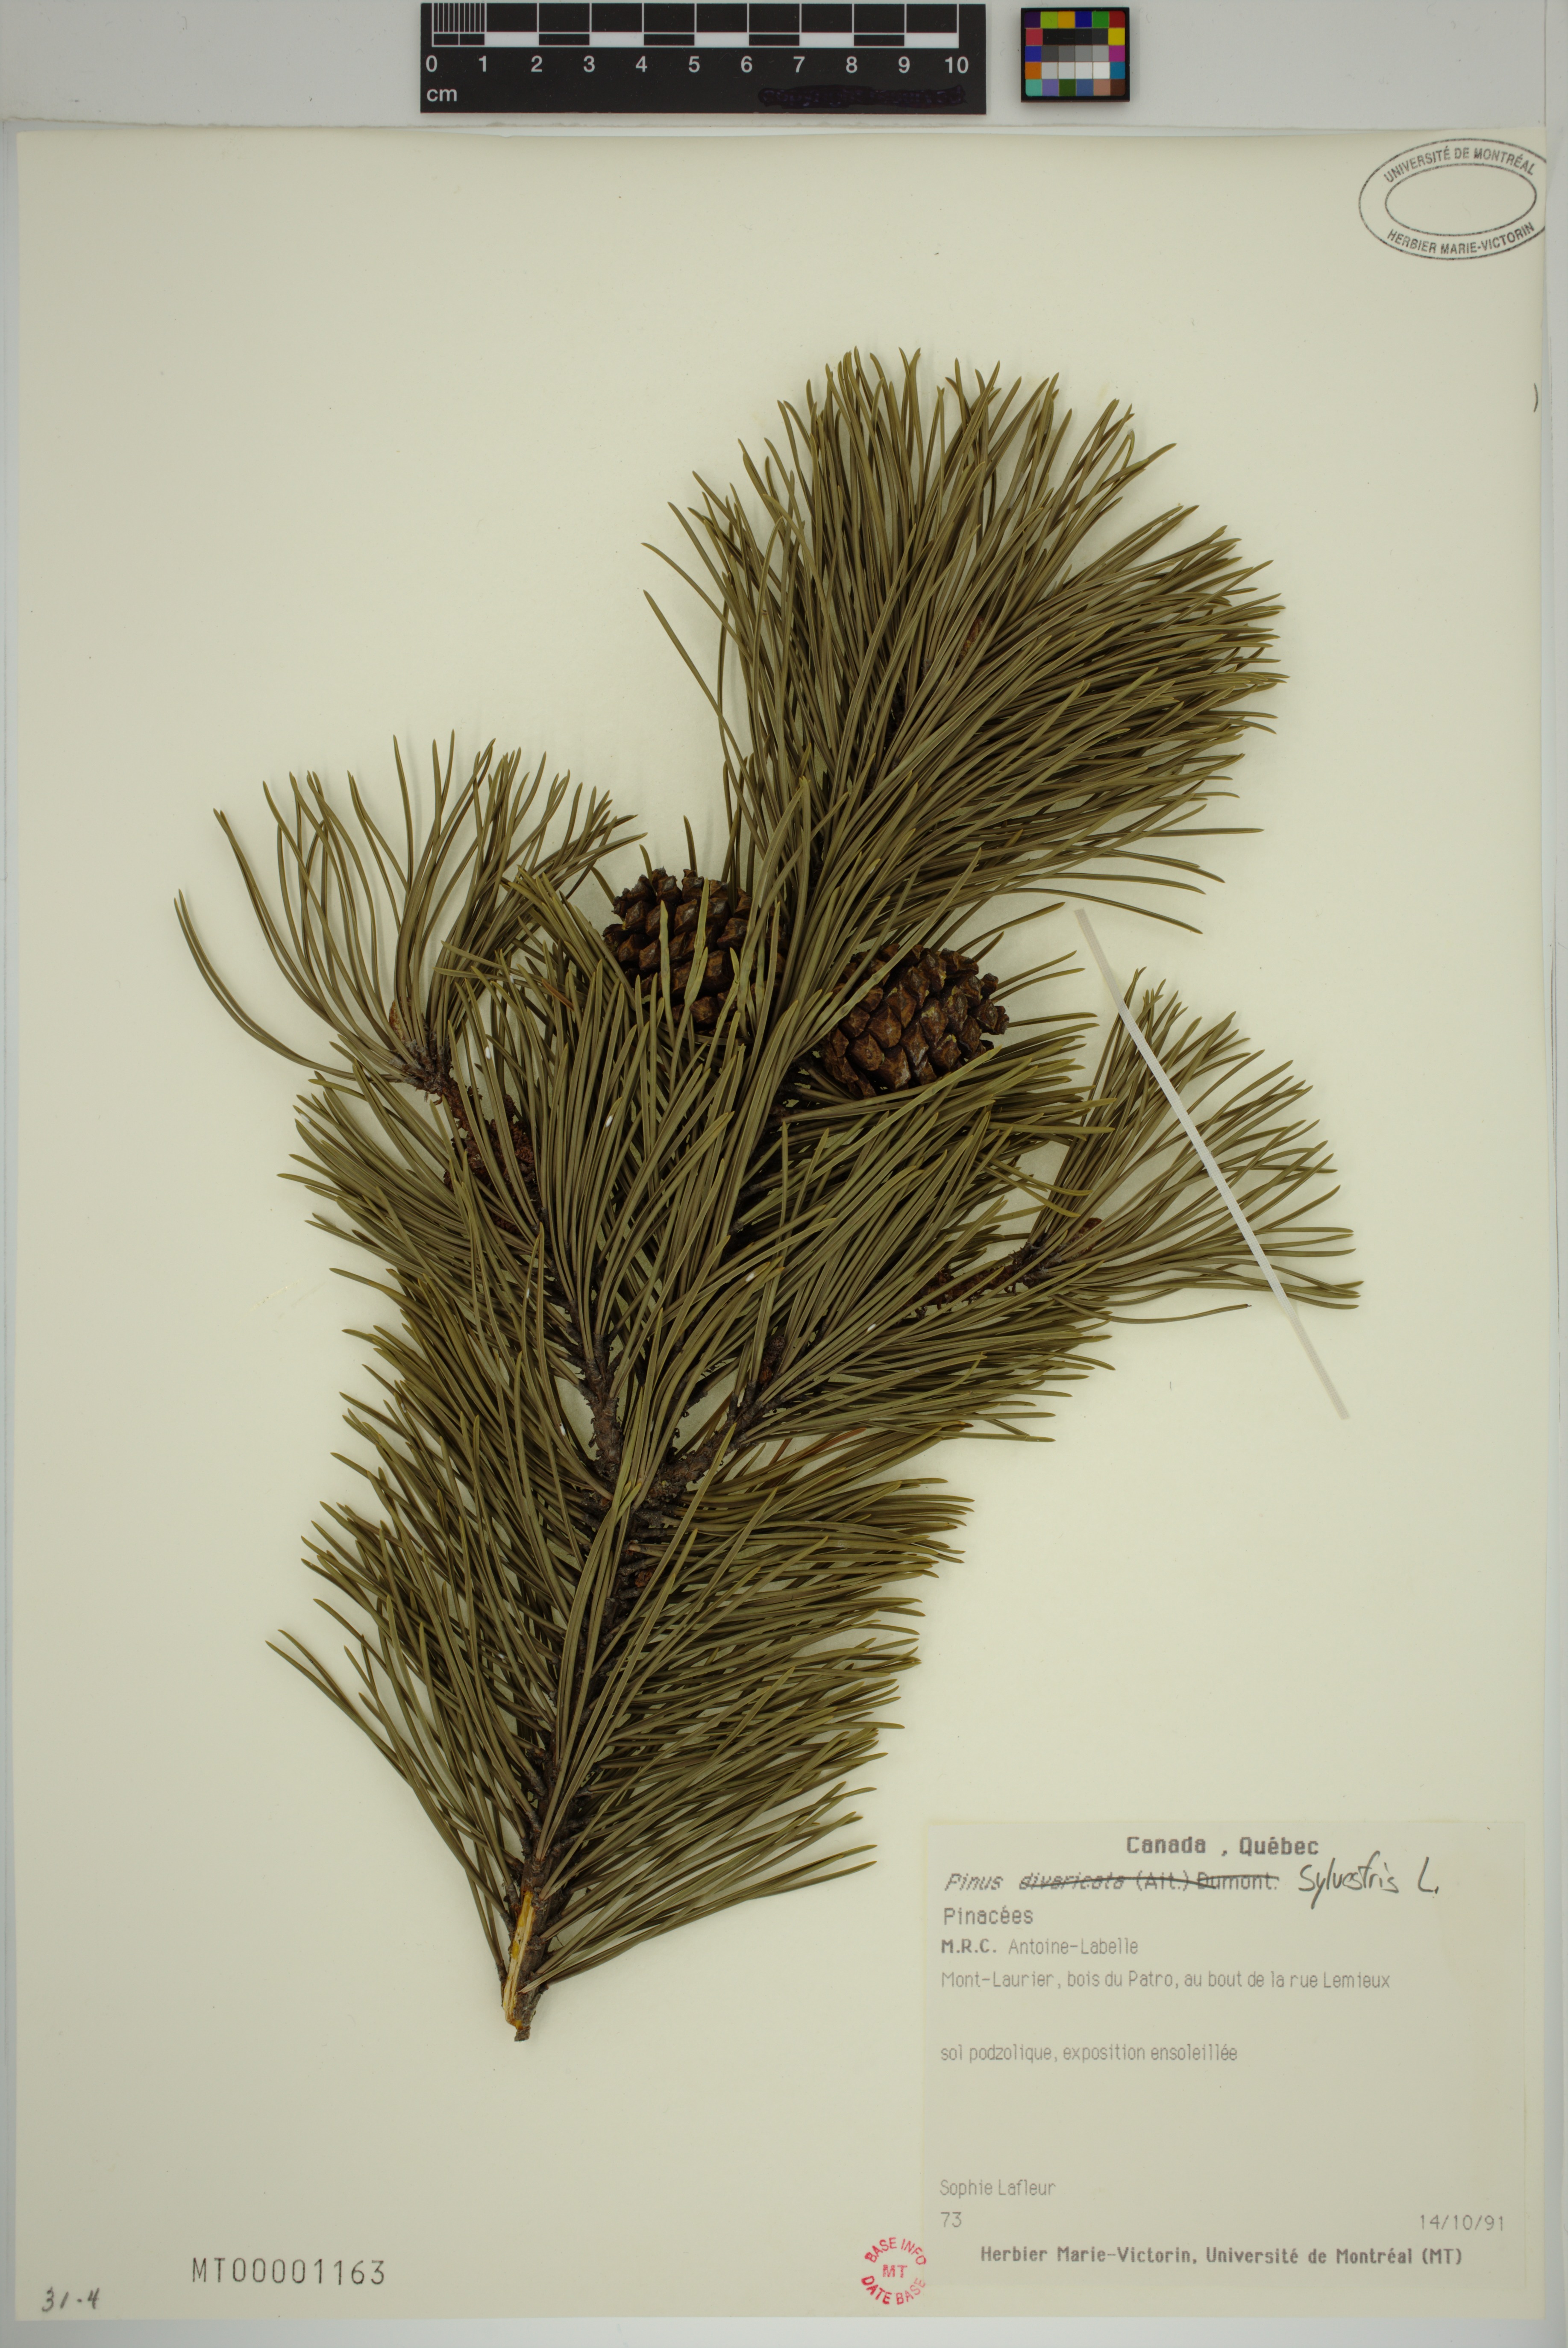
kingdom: Plantae
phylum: Tracheophyta
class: Pinopsida
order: Pinales
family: Pinaceae
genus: Pinus
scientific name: Pinus sylvestris
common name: Scots pine
